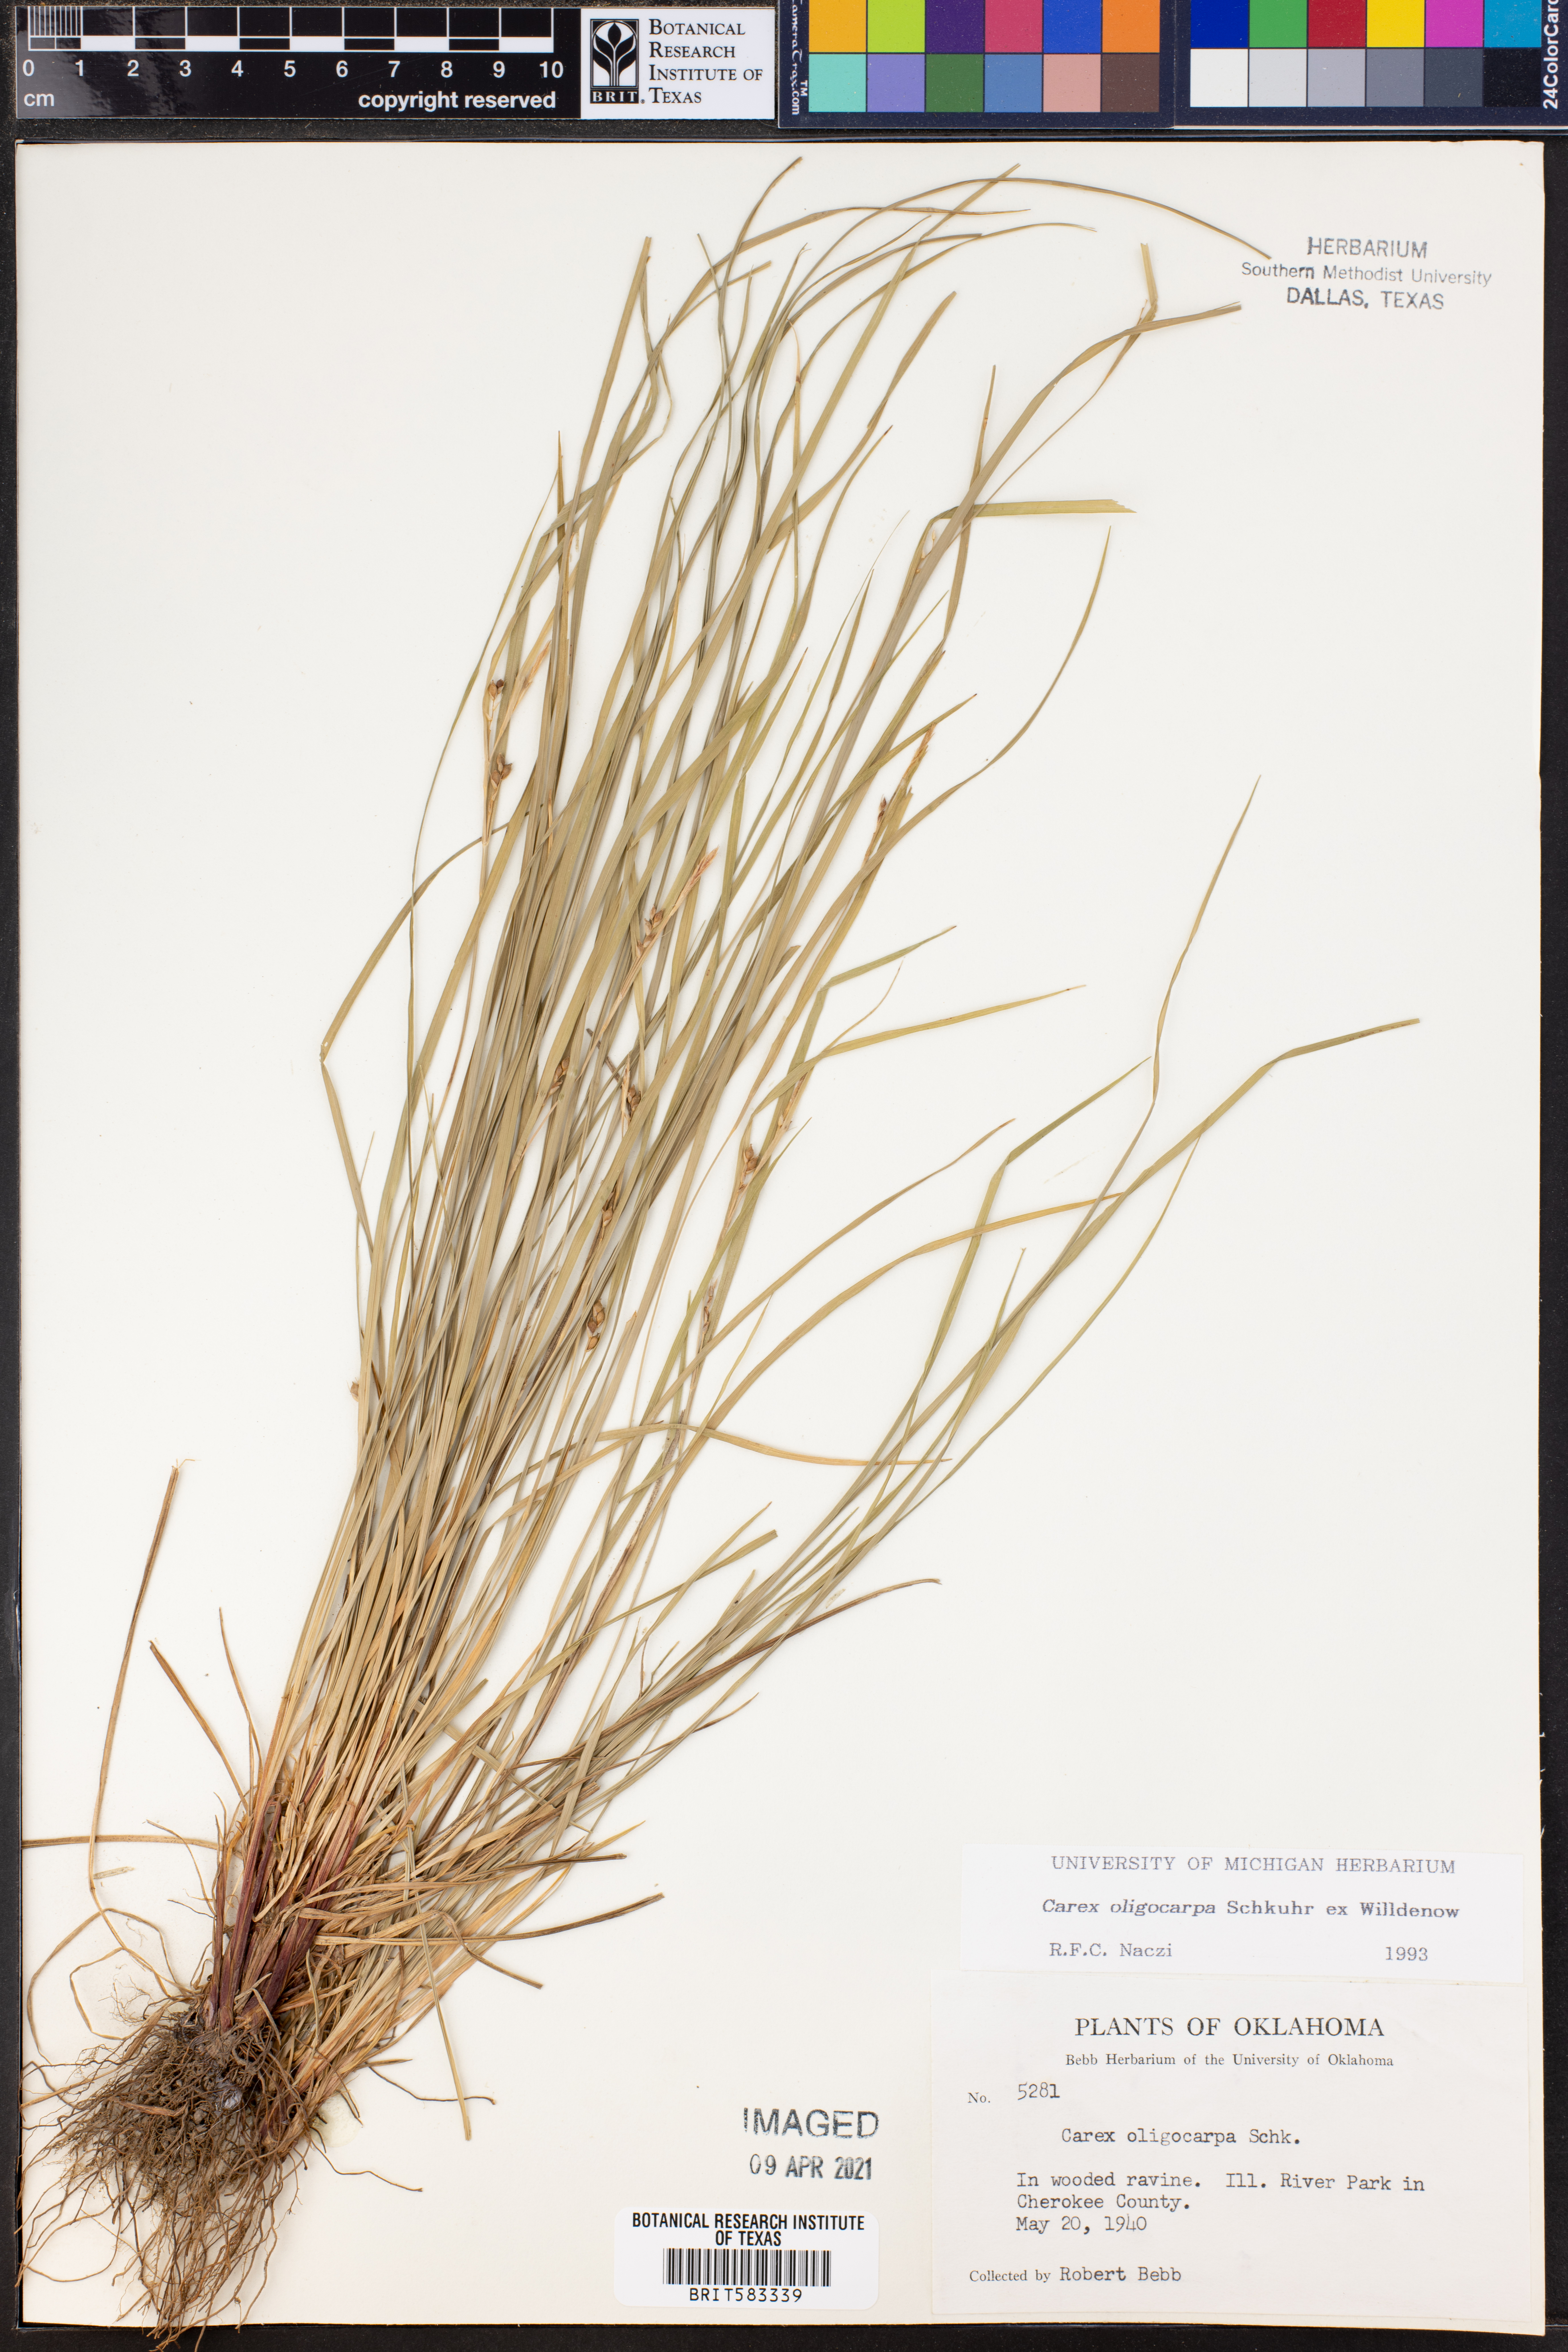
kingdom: Plantae
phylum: Tracheophyta
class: Liliopsida
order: Poales
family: Cyperaceae
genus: Carex
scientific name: Carex oligocarpa
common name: Eastern few-fruited sedge
